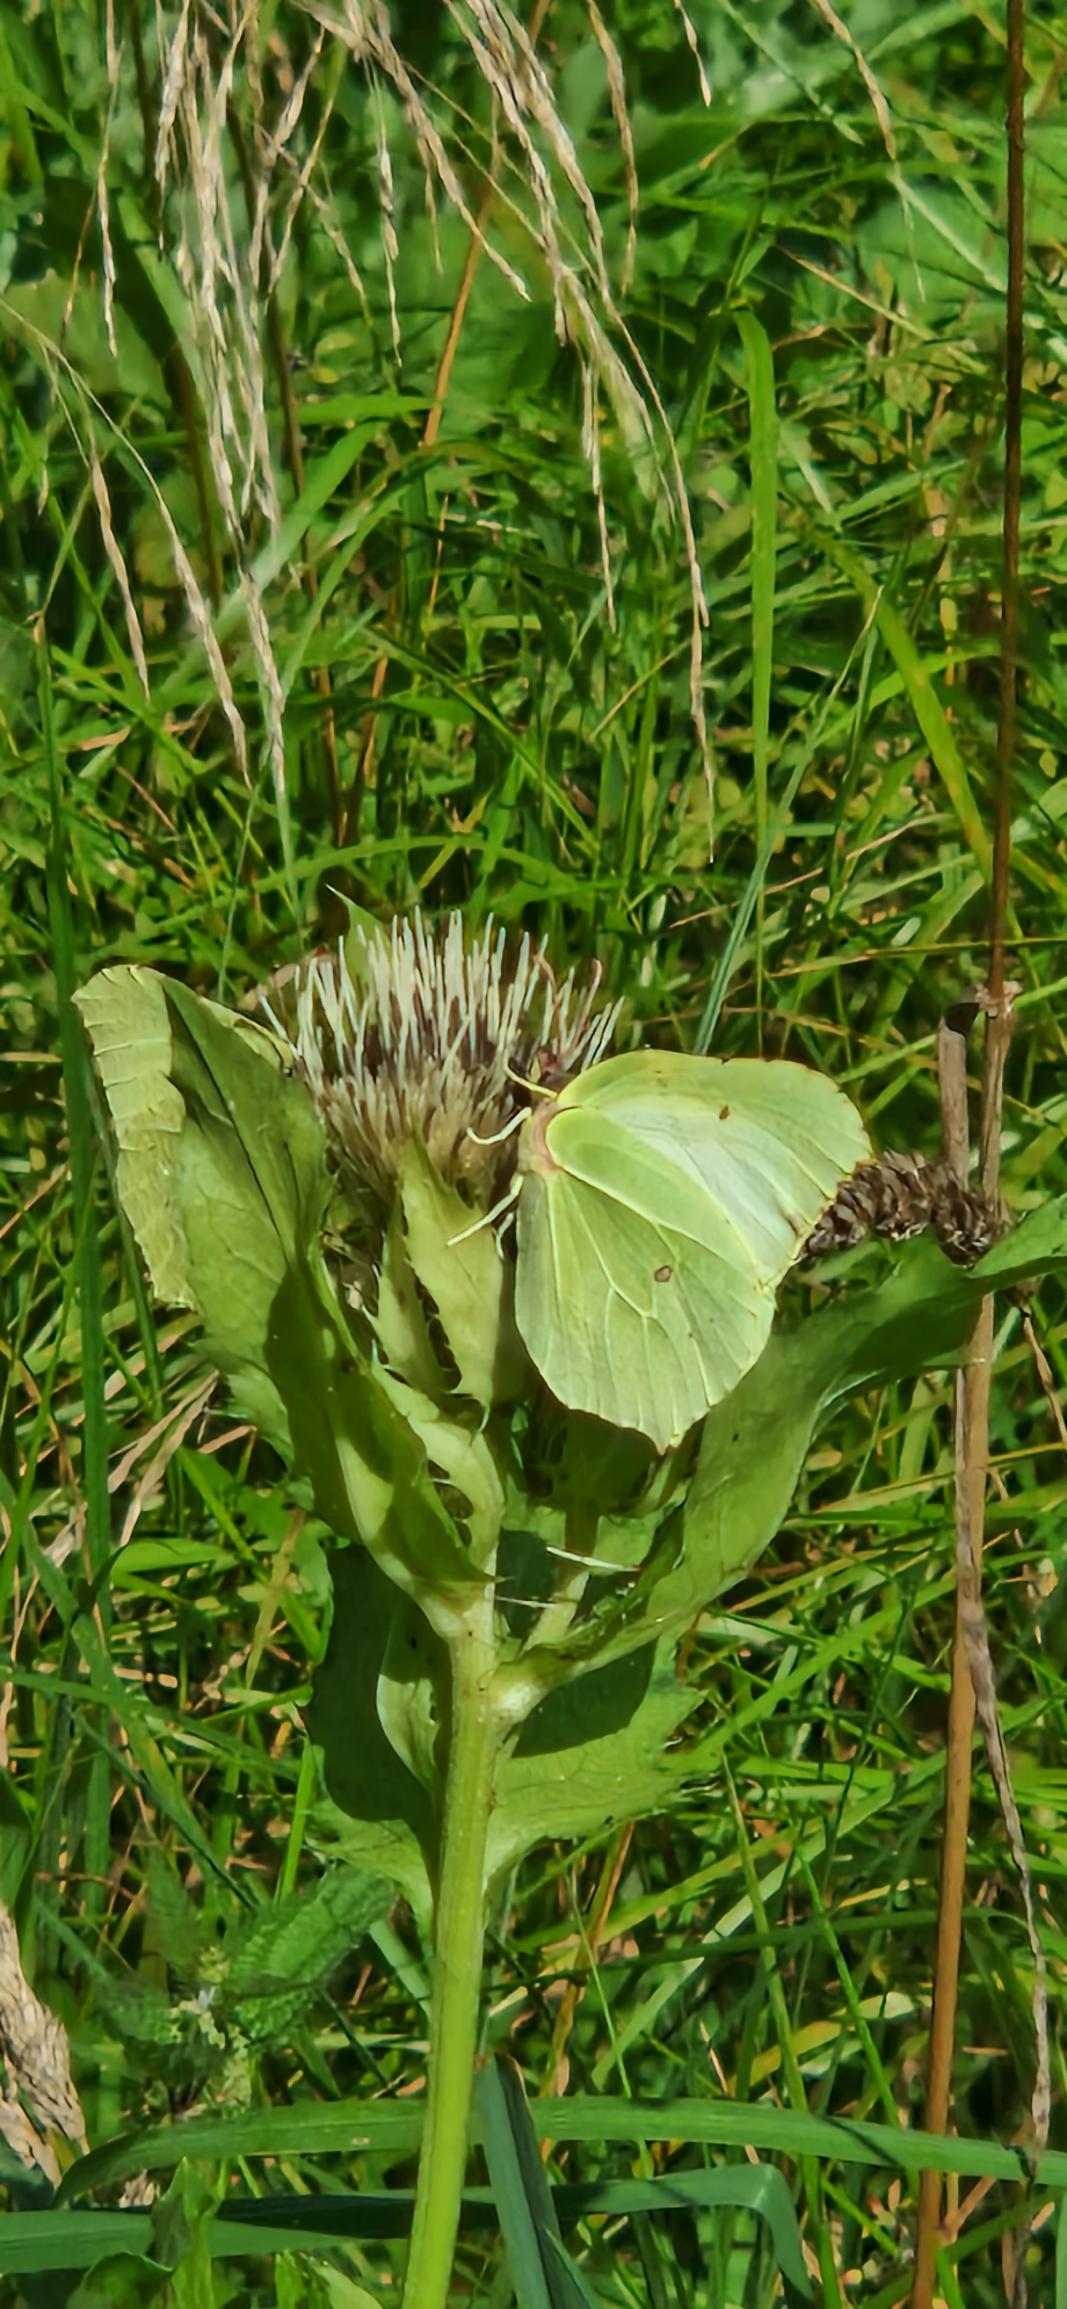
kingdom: Animalia
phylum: Arthropoda
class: Insecta
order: Lepidoptera
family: Pieridae
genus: Gonepteryx
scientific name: Gonepteryx rhamni
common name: Citronsommerfugl
